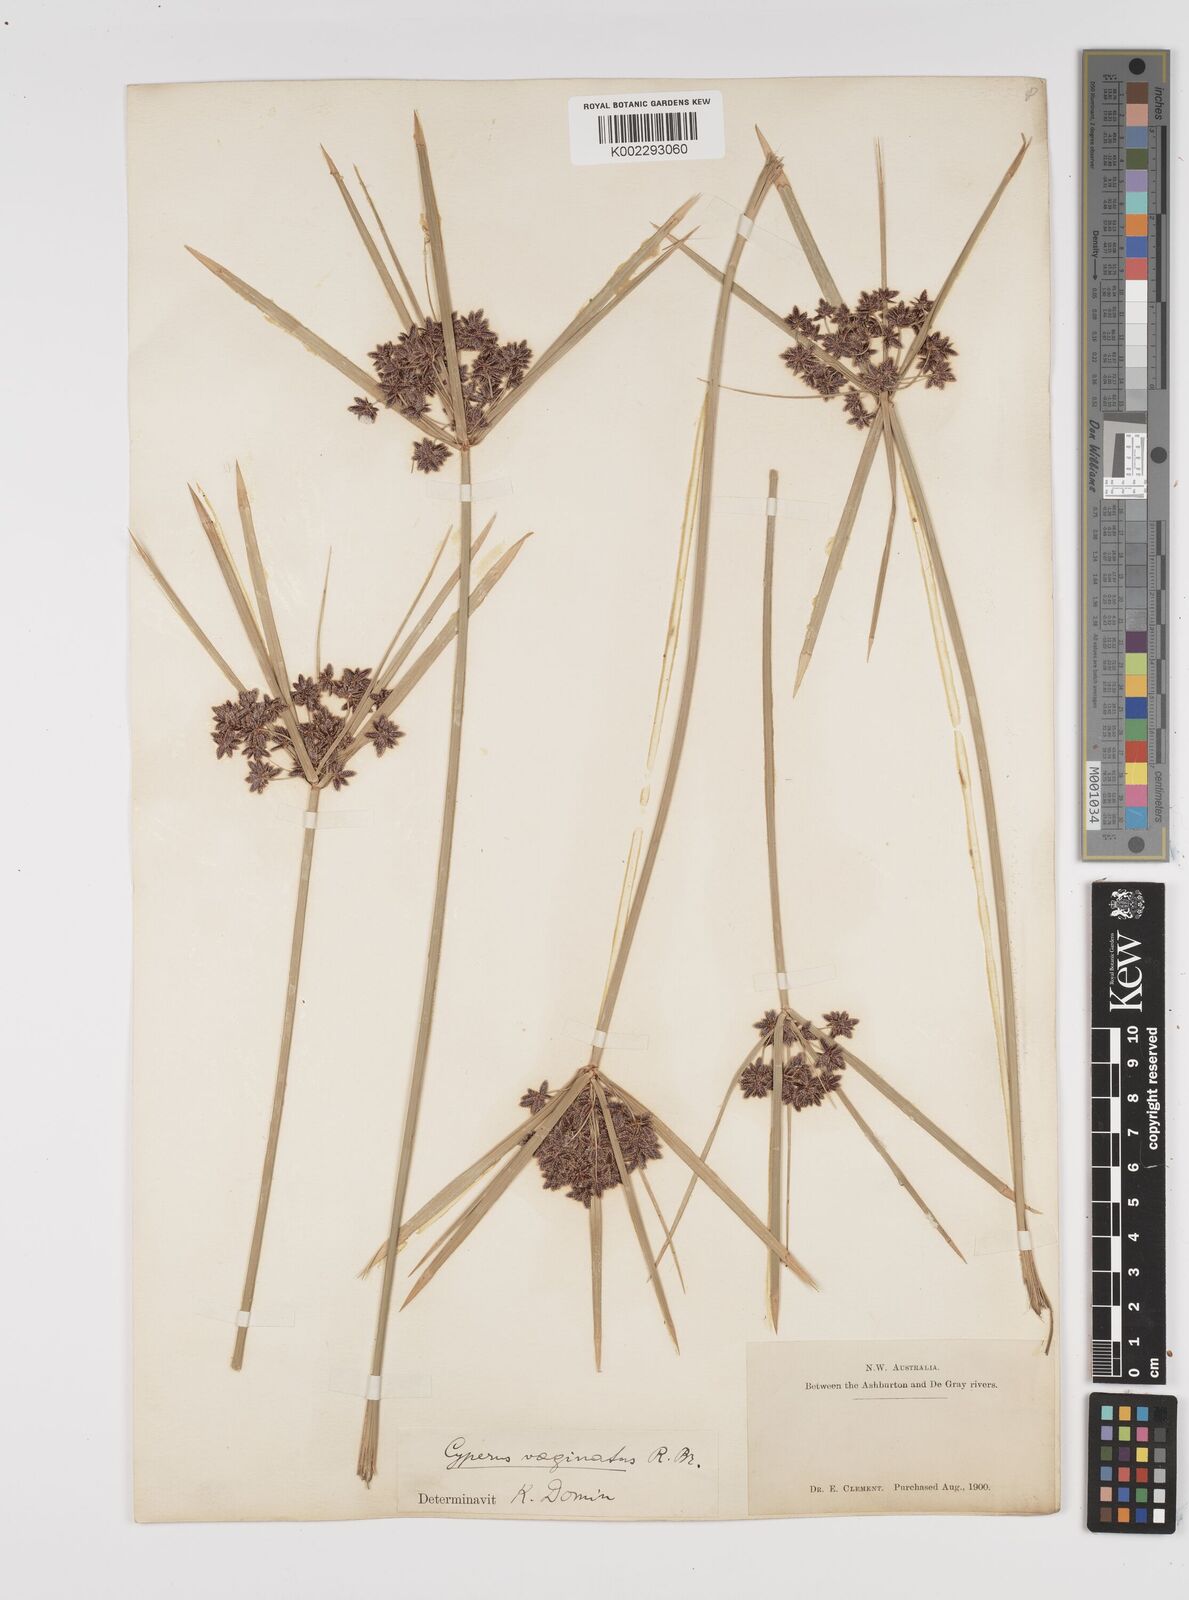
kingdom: Plantae
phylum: Tracheophyta
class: Liliopsida
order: Poales
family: Cyperaceae
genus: Cyperus
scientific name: Cyperus vaginatus
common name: Stiff-leaved flat-sedge
